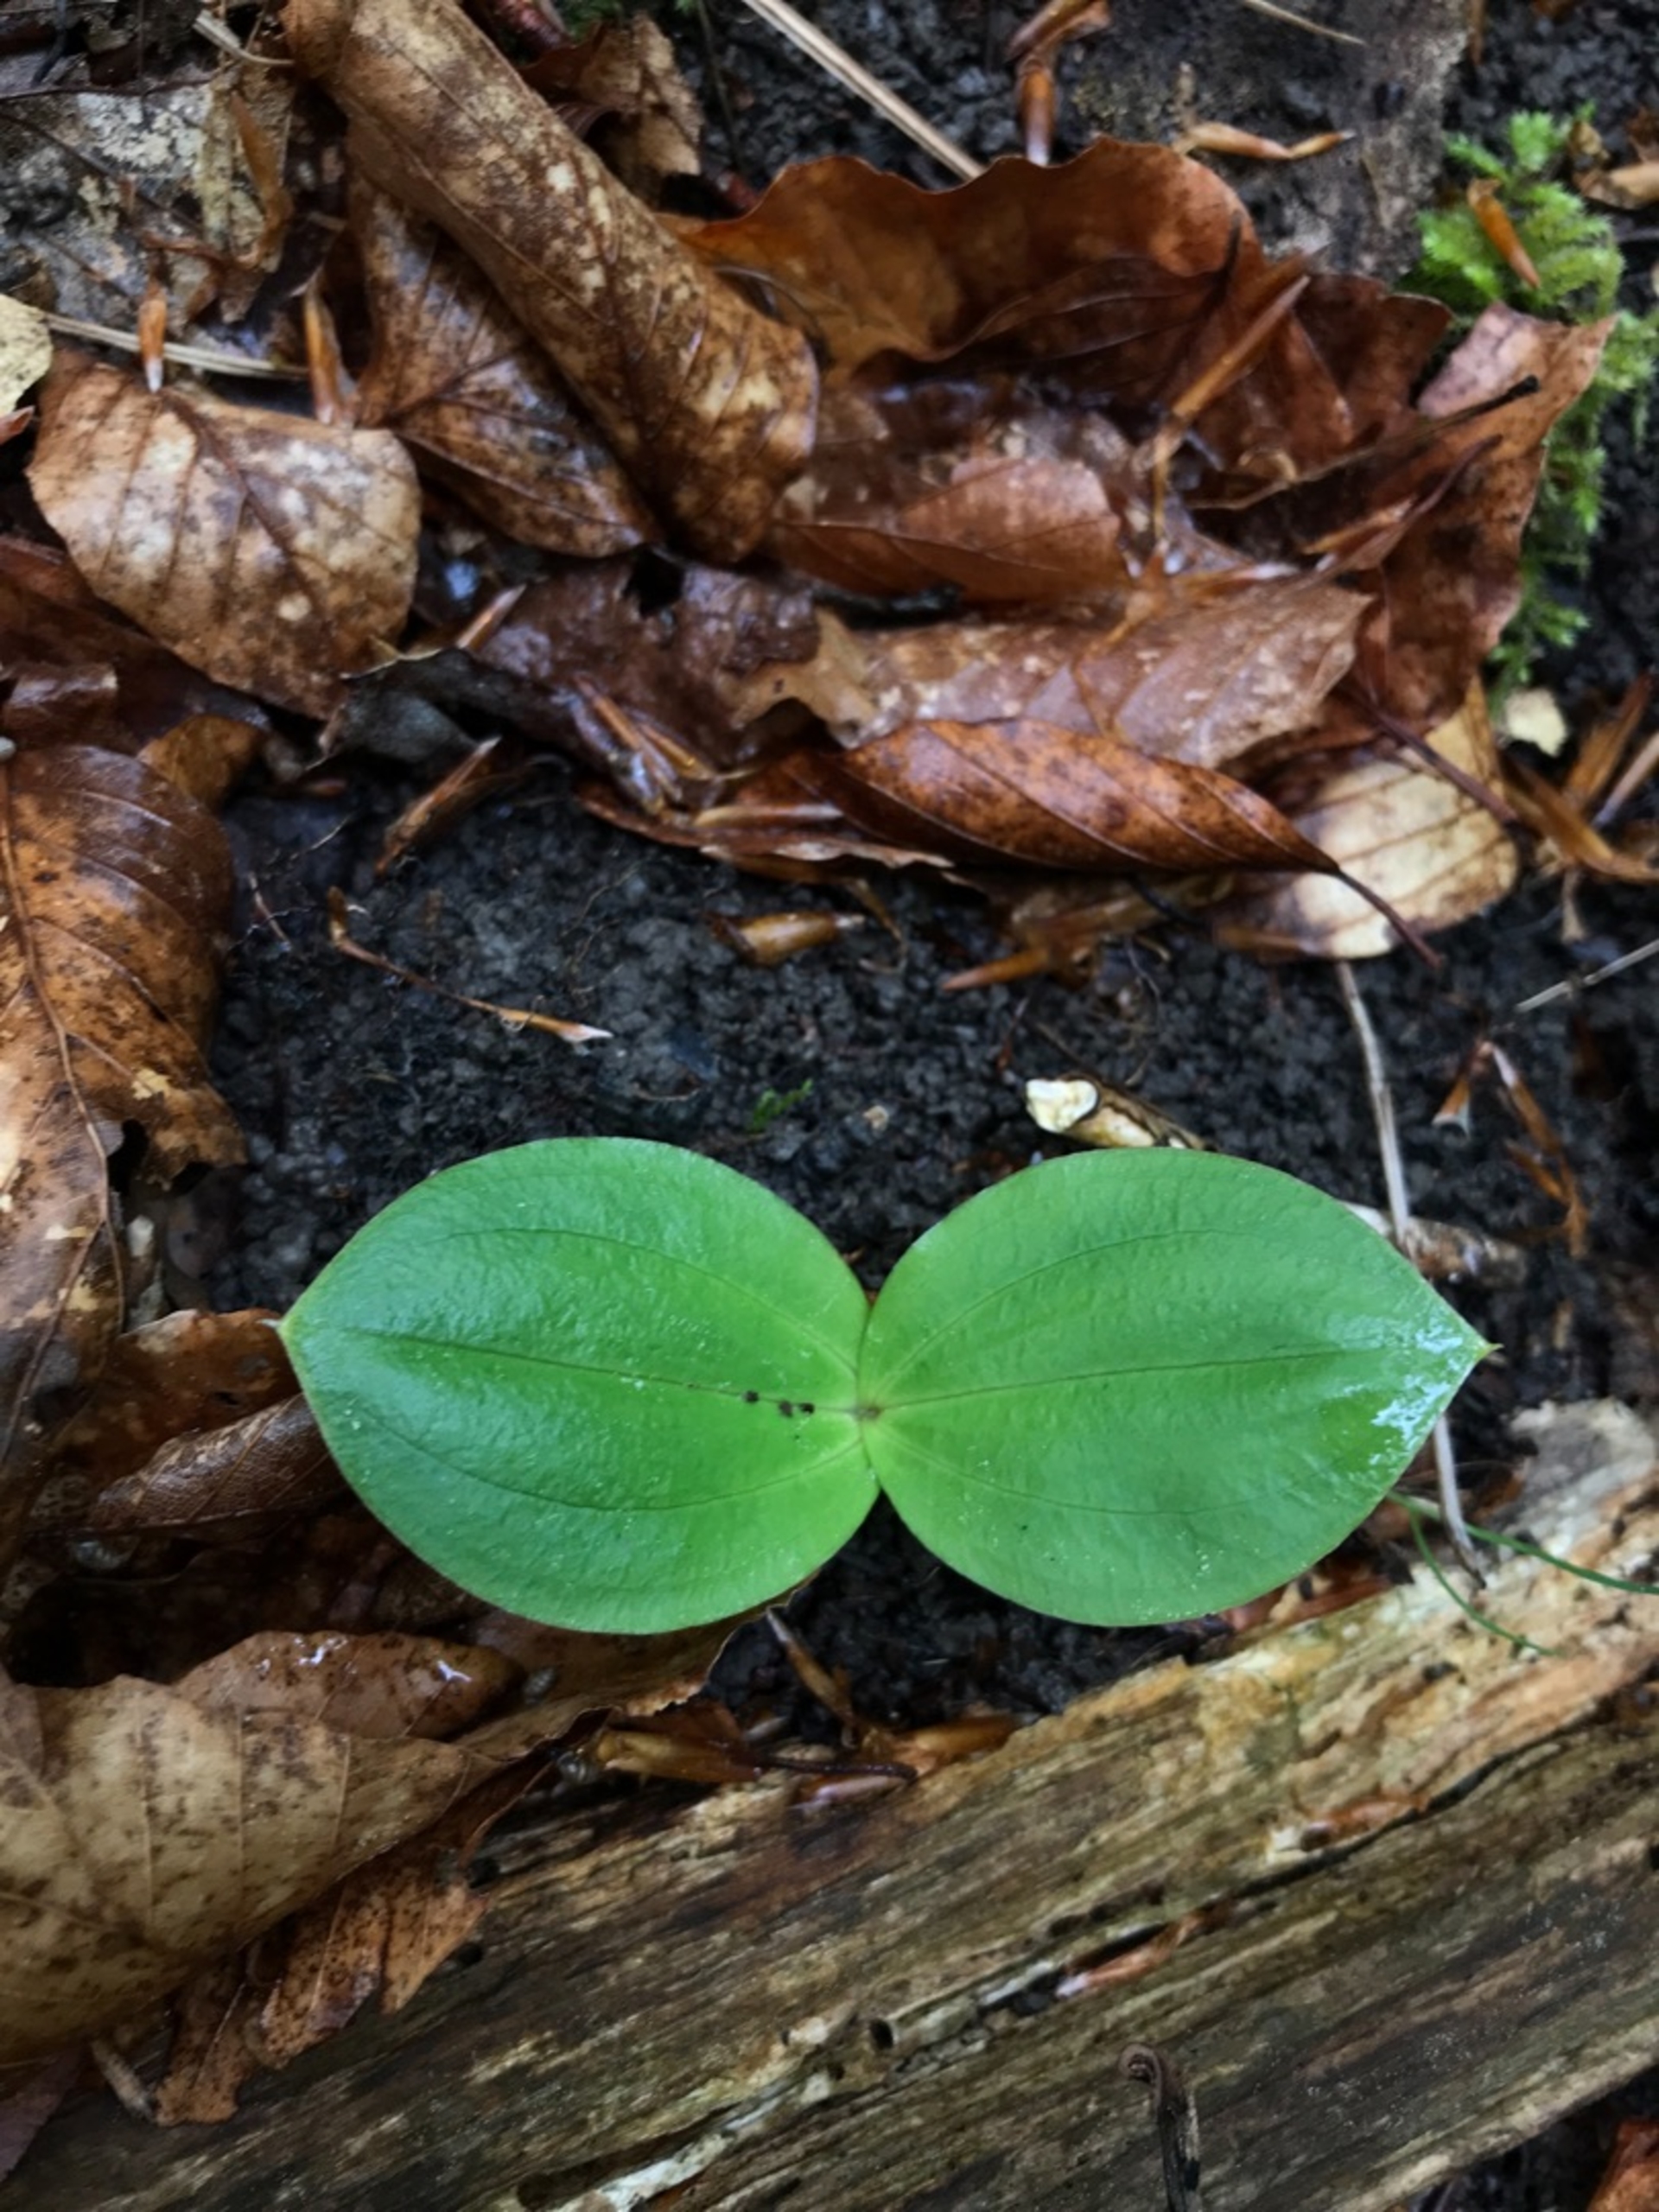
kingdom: Plantae
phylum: Tracheophyta
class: Liliopsida
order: Asparagales
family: Orchidaceae
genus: Neottia
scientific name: Neottia ovata
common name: Ægbladet fliglæbe
